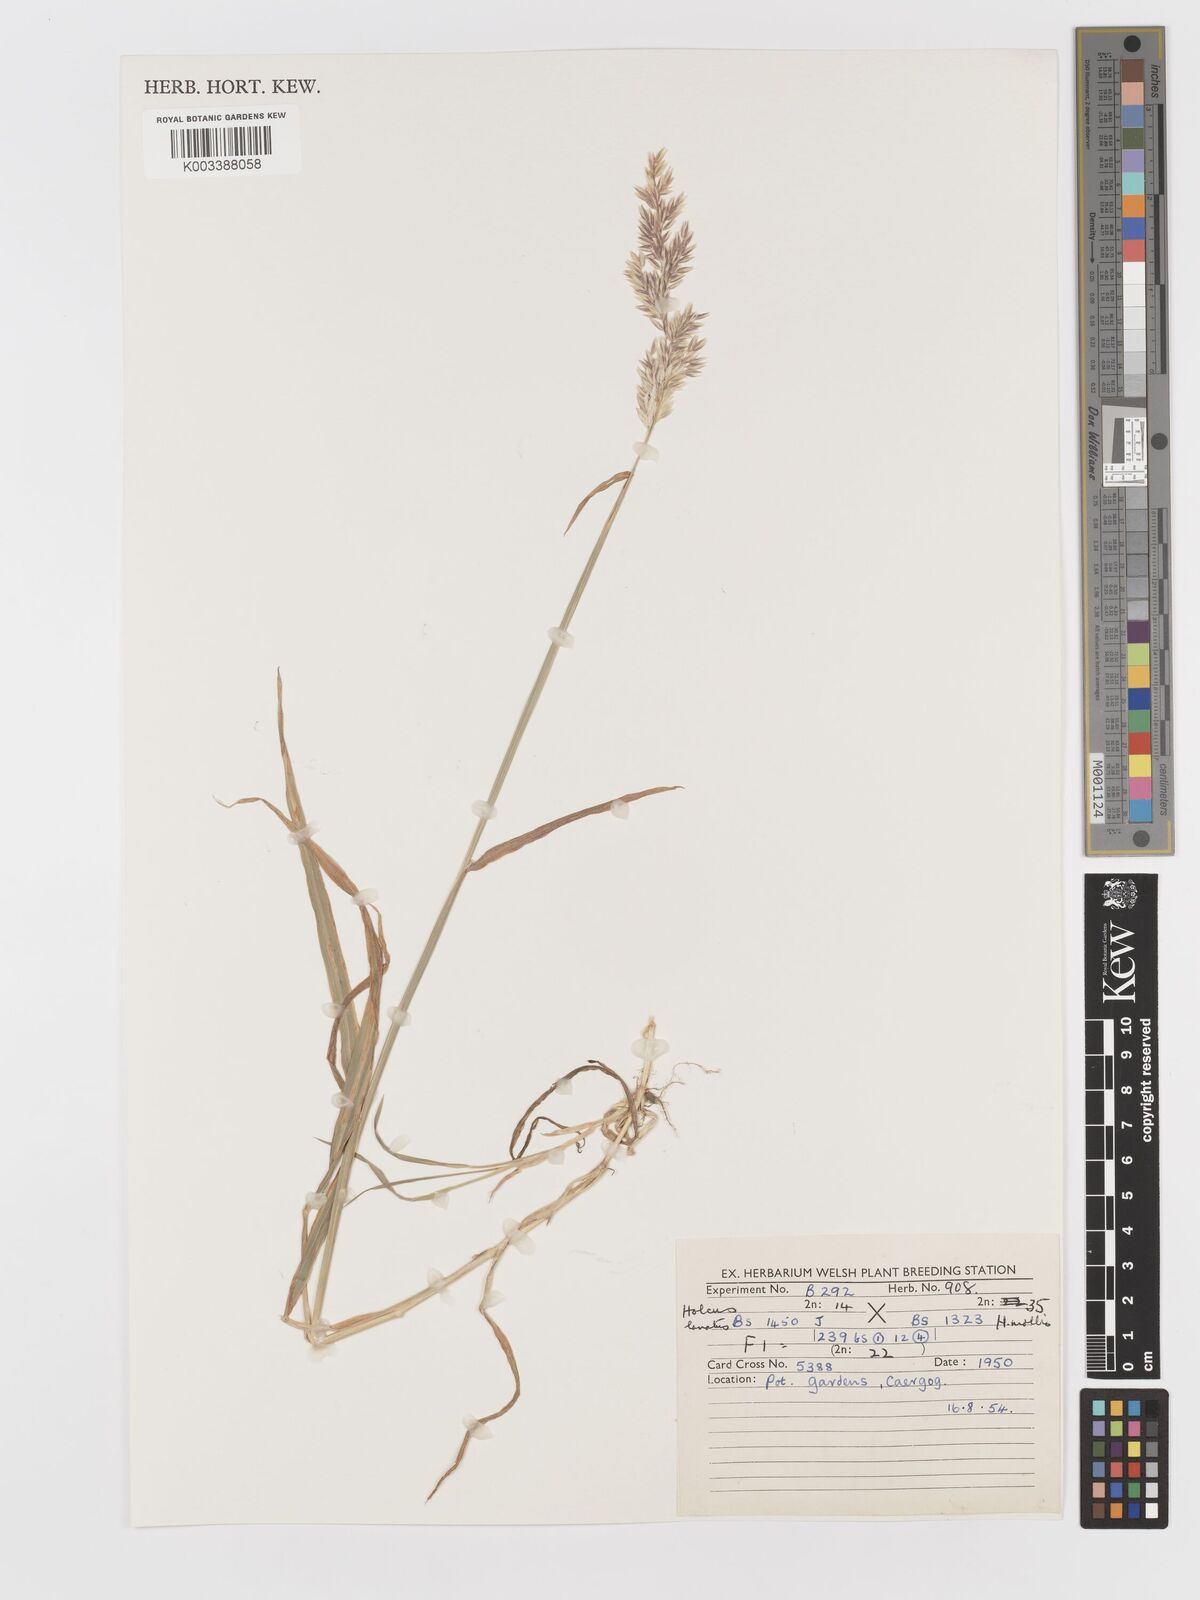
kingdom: Plantae
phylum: Tracheophyta
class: Liliopsida
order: Poales
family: Poaceae
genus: Holcus
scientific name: Holcus lanatus
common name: Yorkshire-fog
